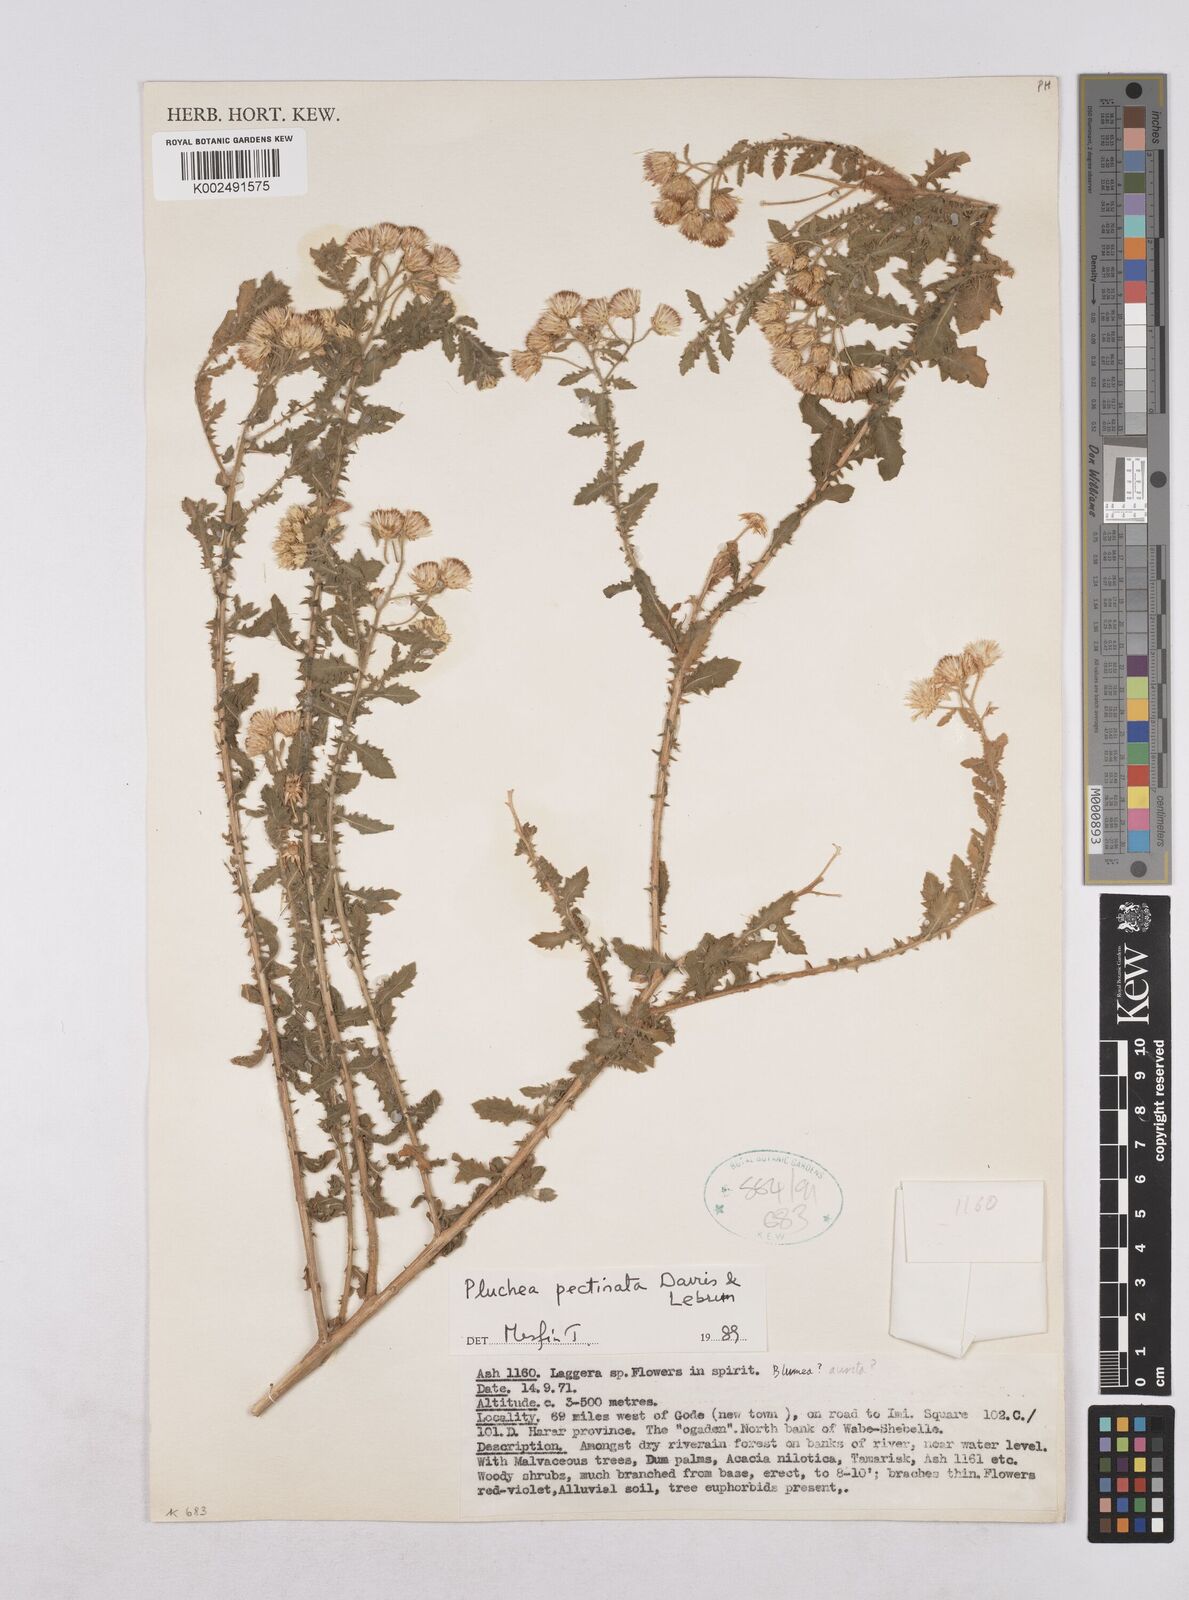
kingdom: Plantae
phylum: Tracheophyta
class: Magnoliopsida
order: Asterales
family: Asteraceae
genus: Pluchea
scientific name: Pluchea somaliensis
